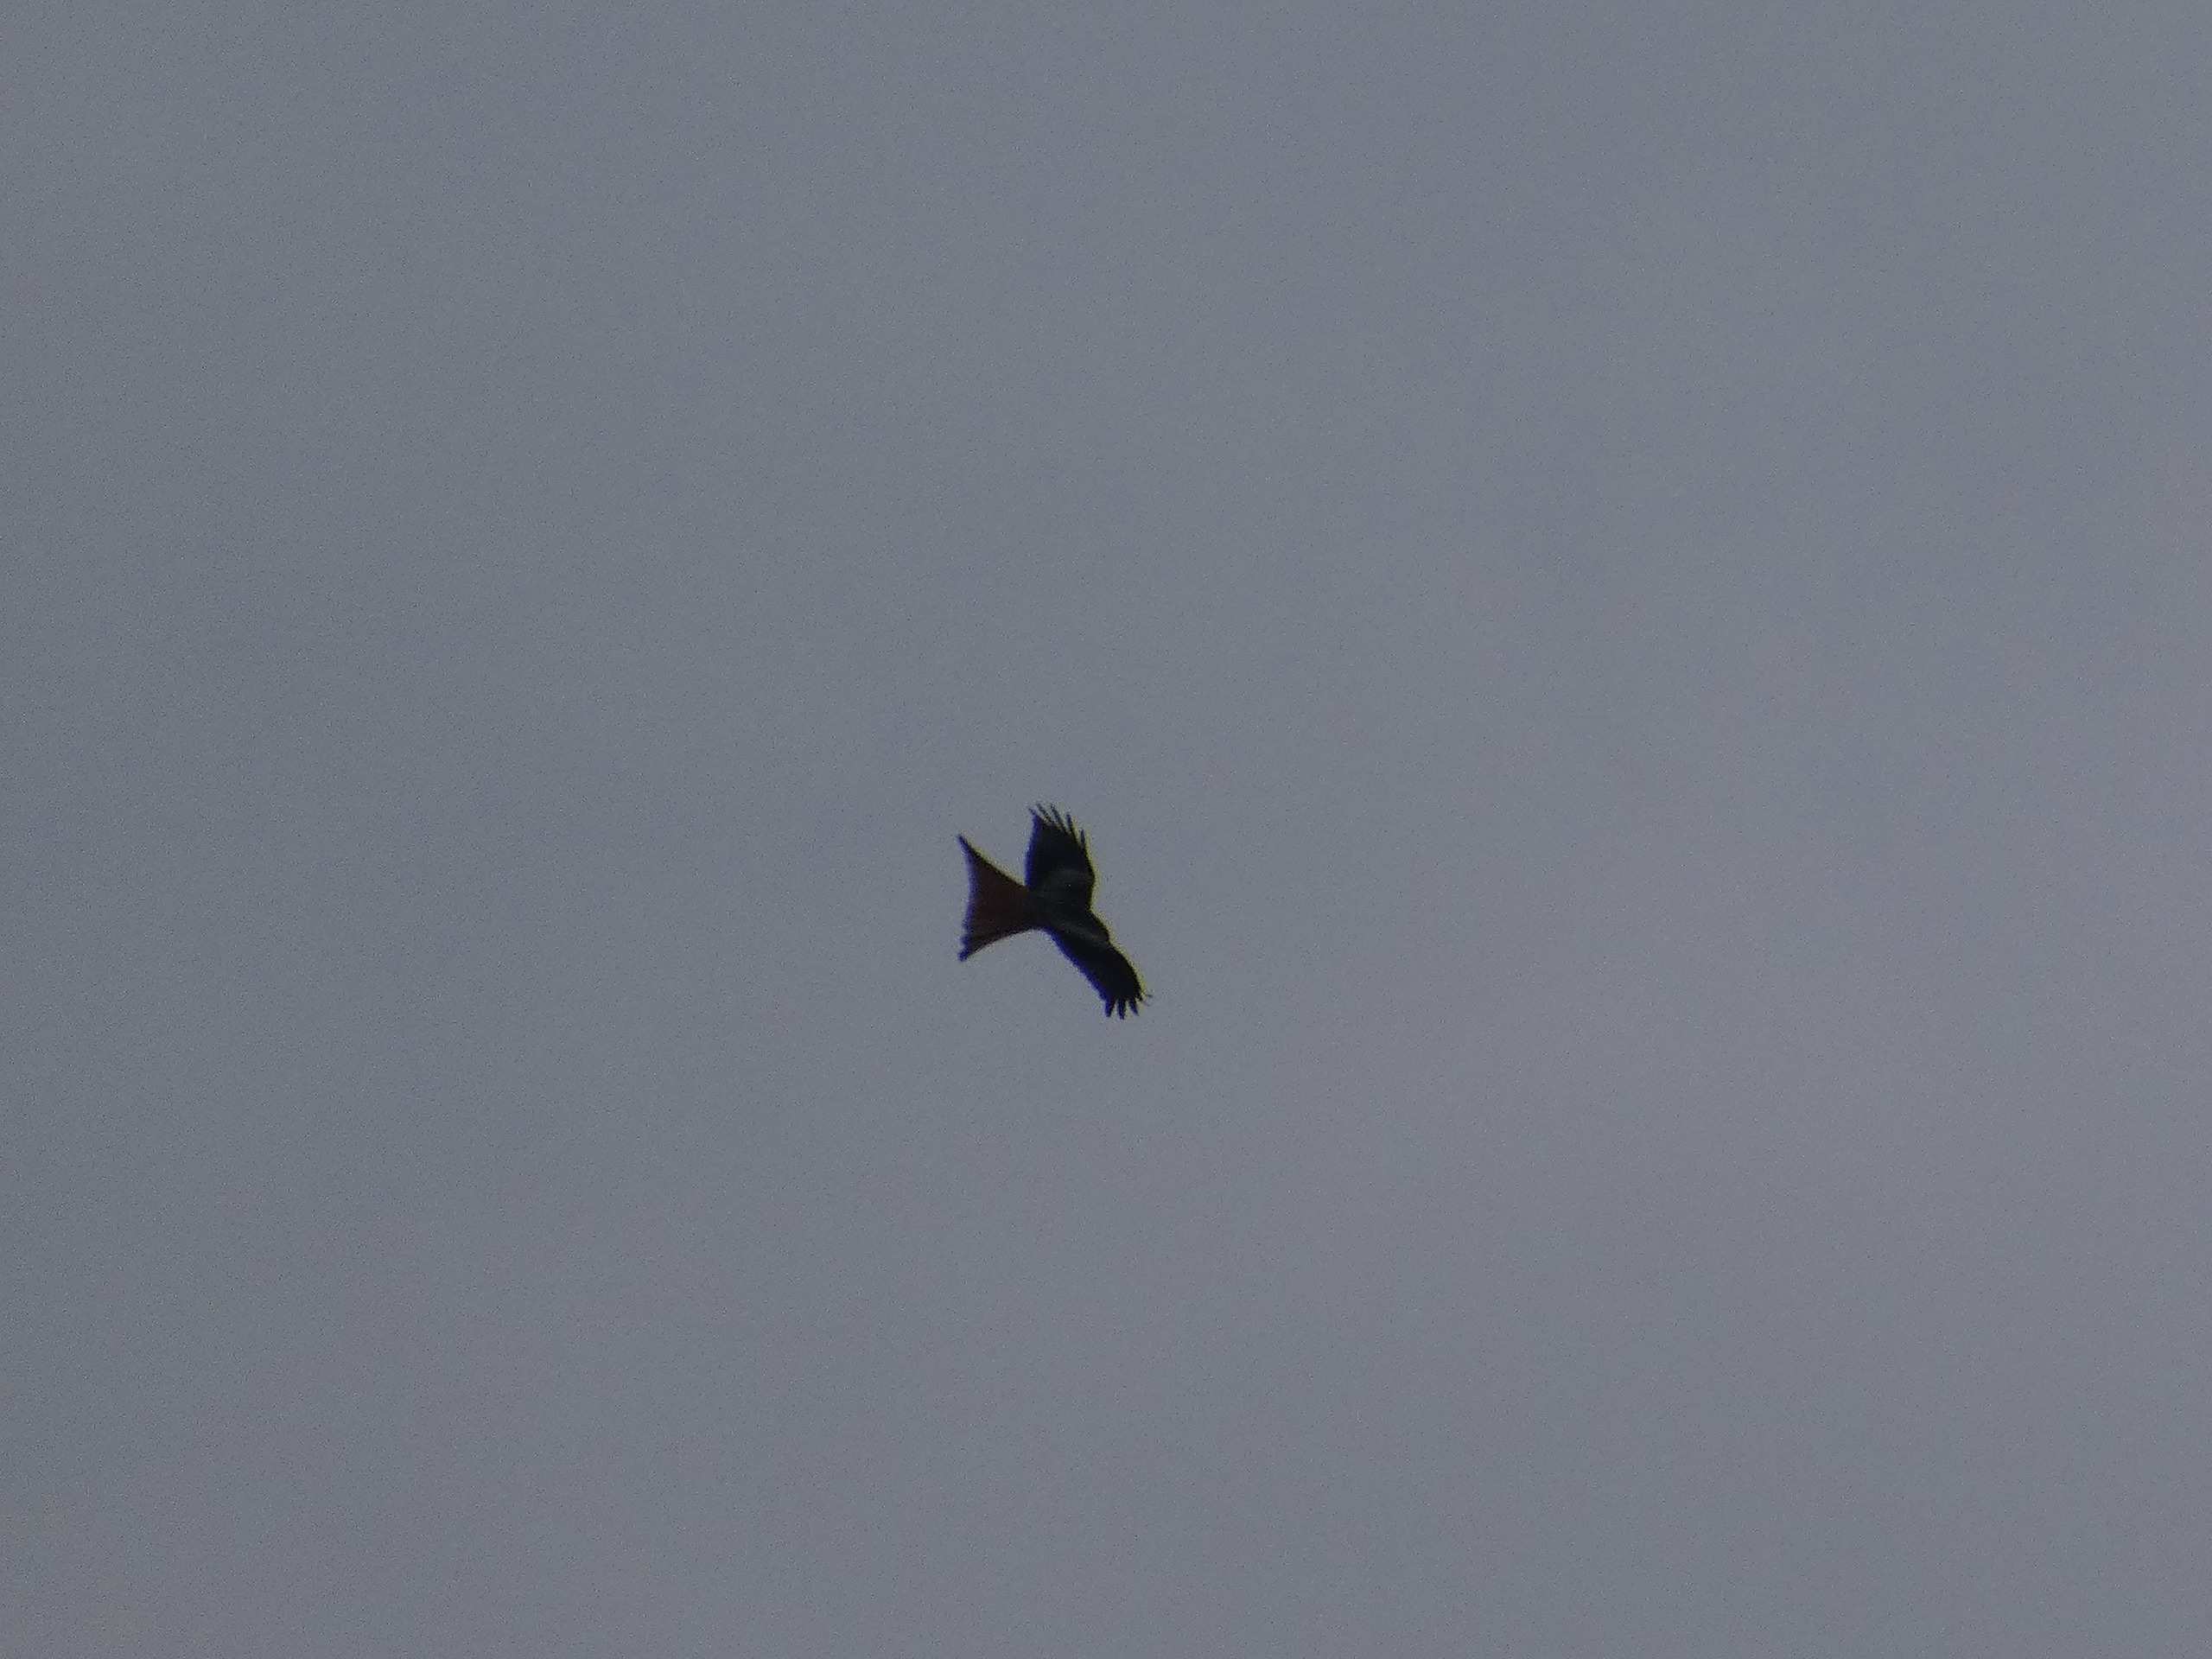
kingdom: Animalia
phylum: Chordata
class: Aves
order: Accipitriformes
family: Accipitridae
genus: Milvus
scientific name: Milvus milvus
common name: Rød glente
